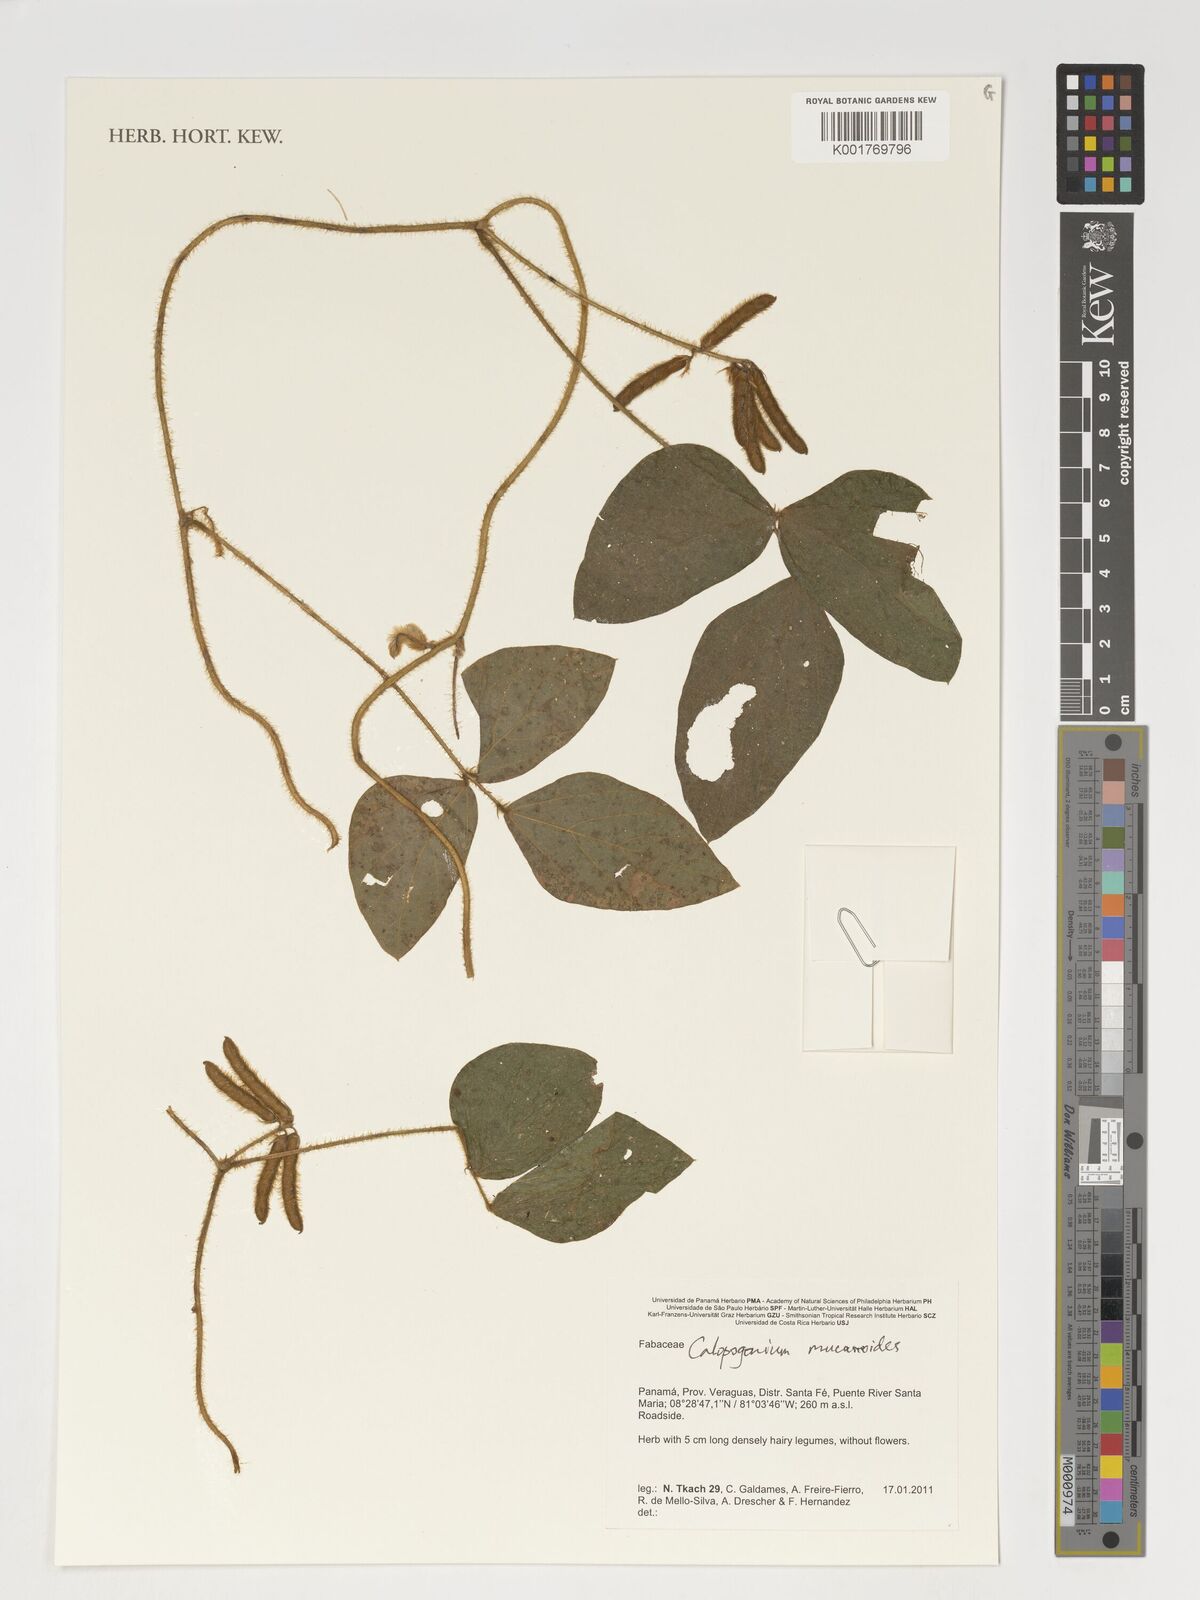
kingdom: Plantae
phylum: Tracheophyta
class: Magnoliopsida
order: Fabales
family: Fabaceae
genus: Calopogonium
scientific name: Calopogonium mucunoides
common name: Calopo
